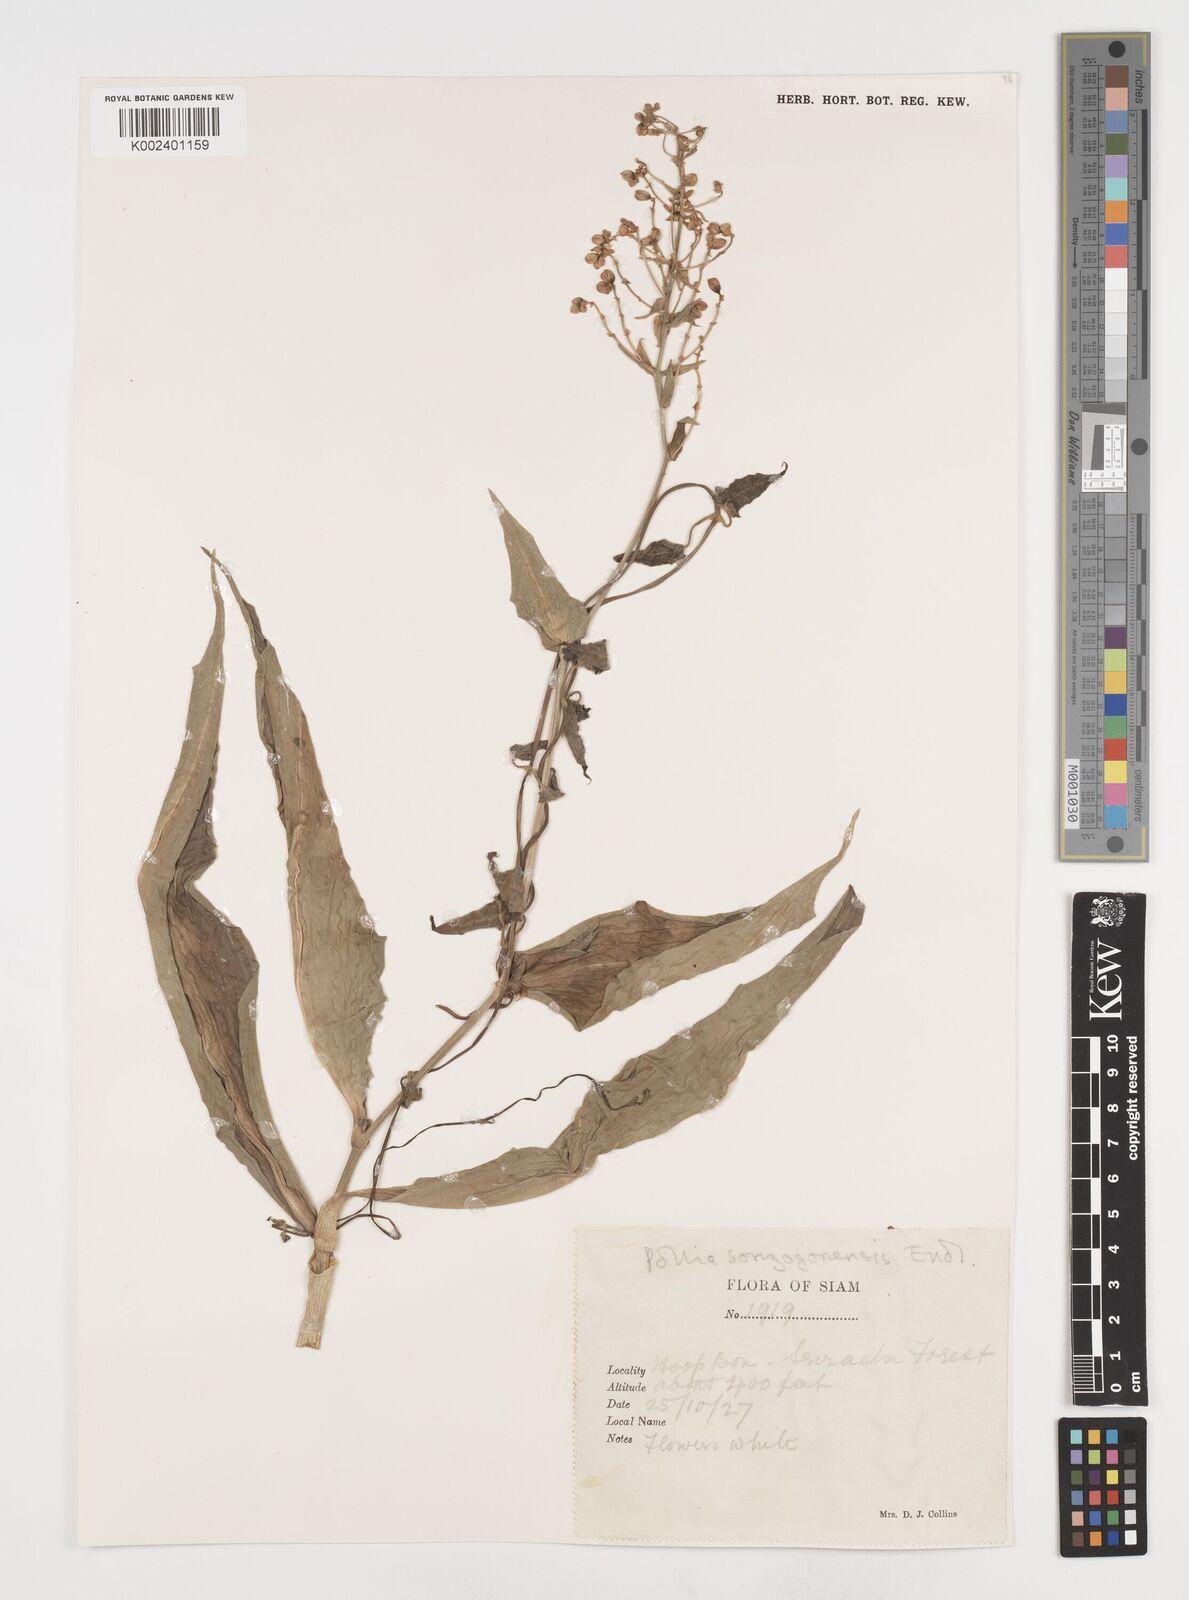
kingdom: Plantae
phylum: Tracheophyta
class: Liliopsida
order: Commelinales
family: Commelinaceae
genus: Pollia
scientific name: Pollia secundiflora
